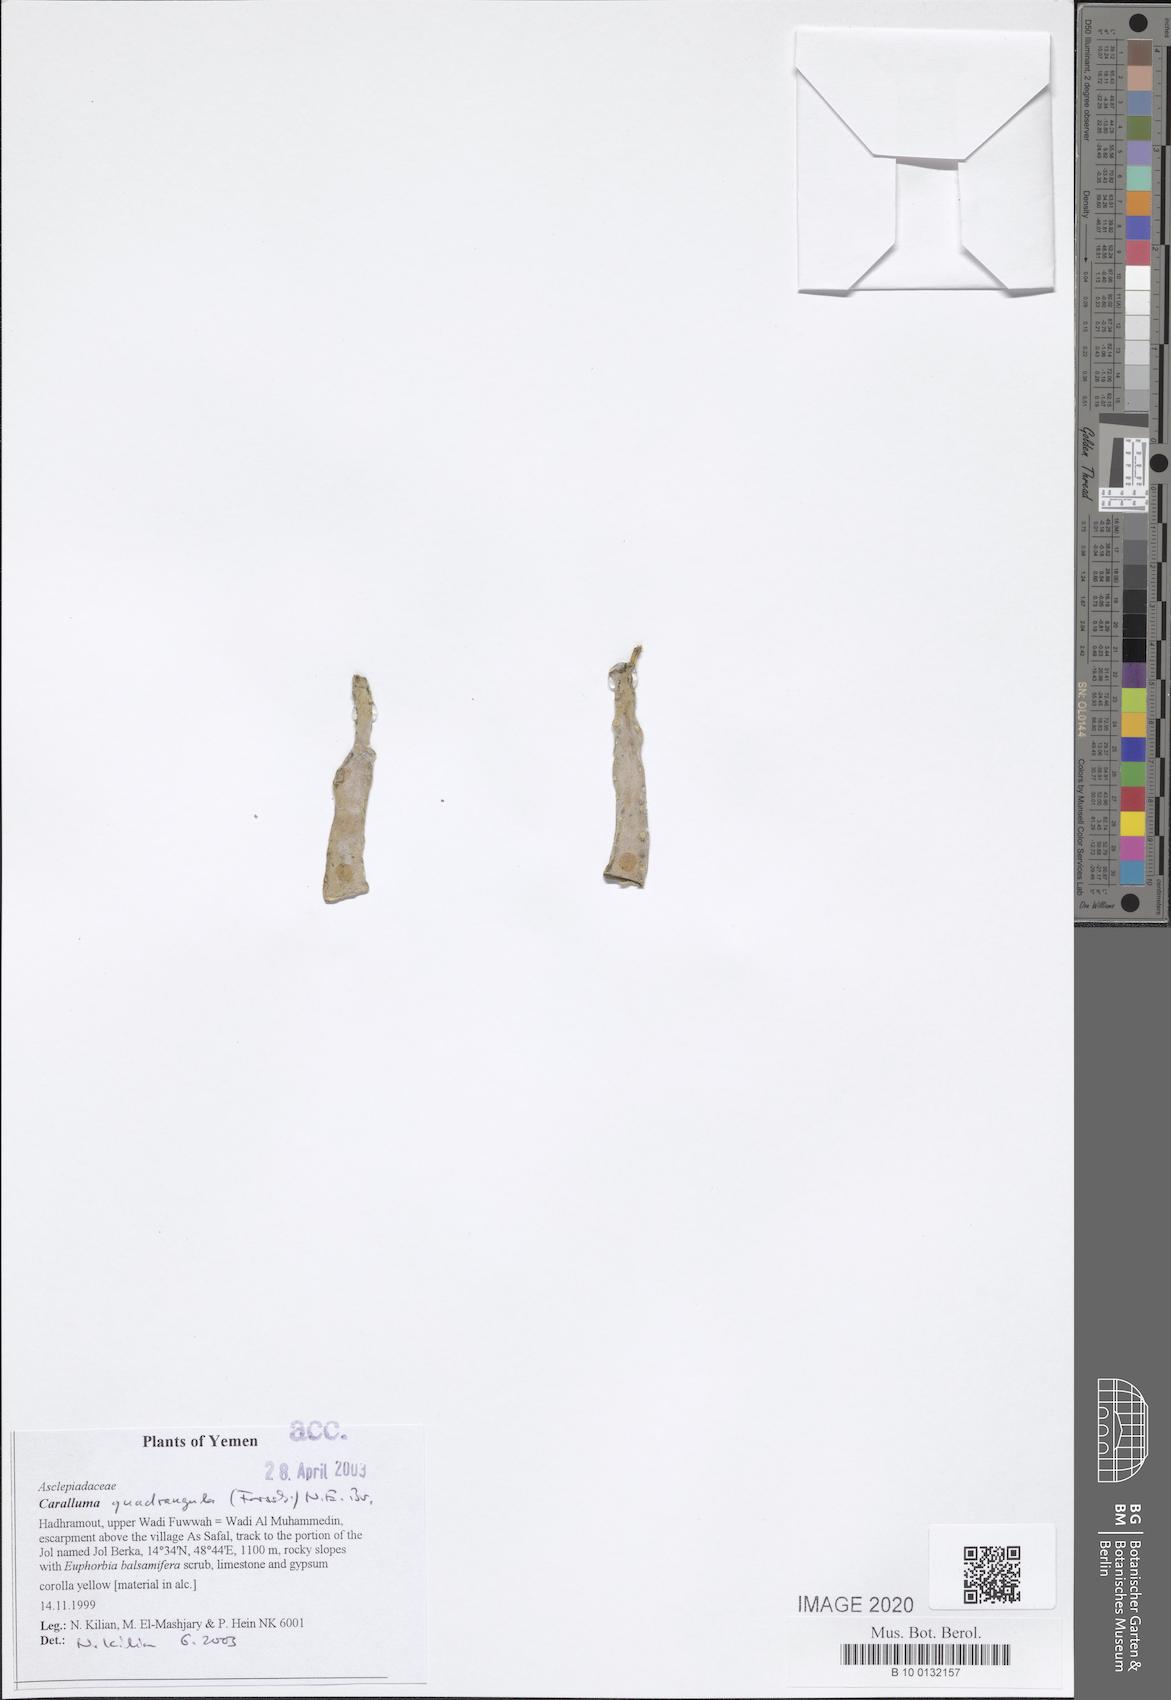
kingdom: Plantae
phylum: Tracheophyta
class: Magnoliopsida
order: Gentianales
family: Apocynaceae
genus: Ceropegia
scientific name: Ceropegia quadrangula
